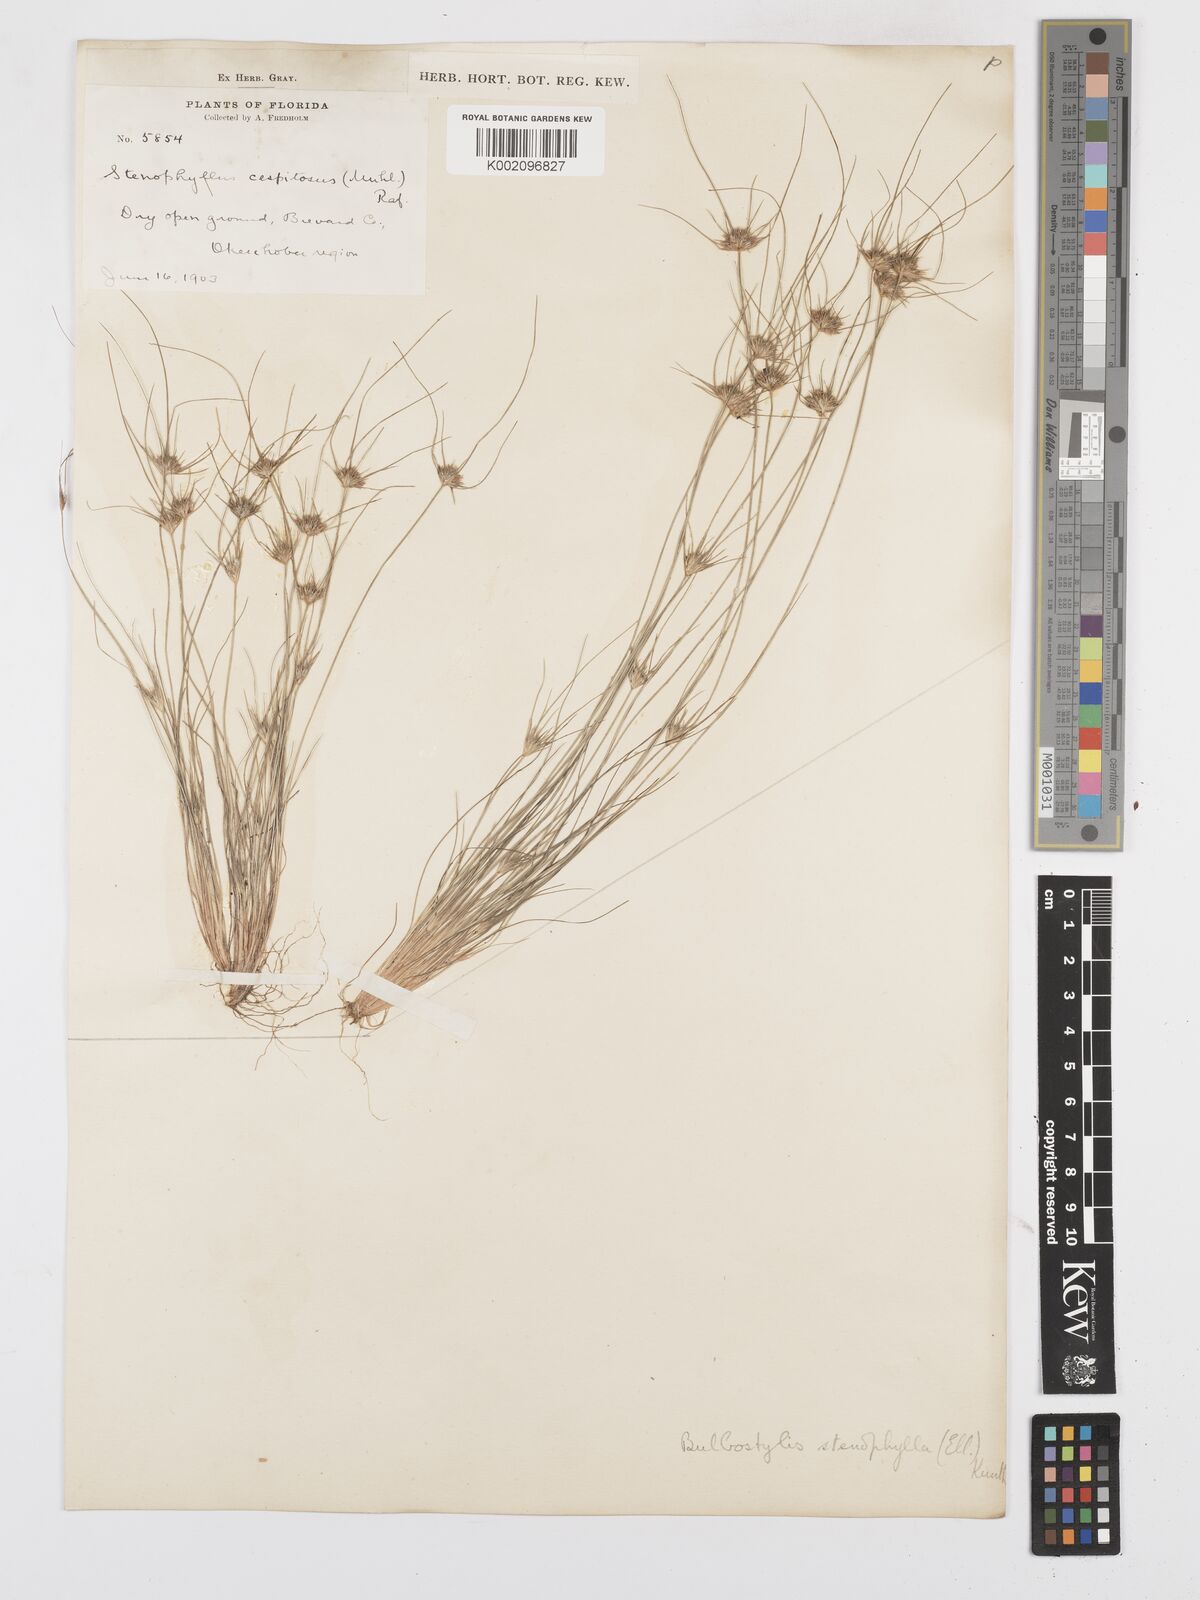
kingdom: Plantae
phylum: Tracheophyta
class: Liliopsida
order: Poales
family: Cyperaceae
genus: Bulbostylis
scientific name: Bulbostylis rarissima
